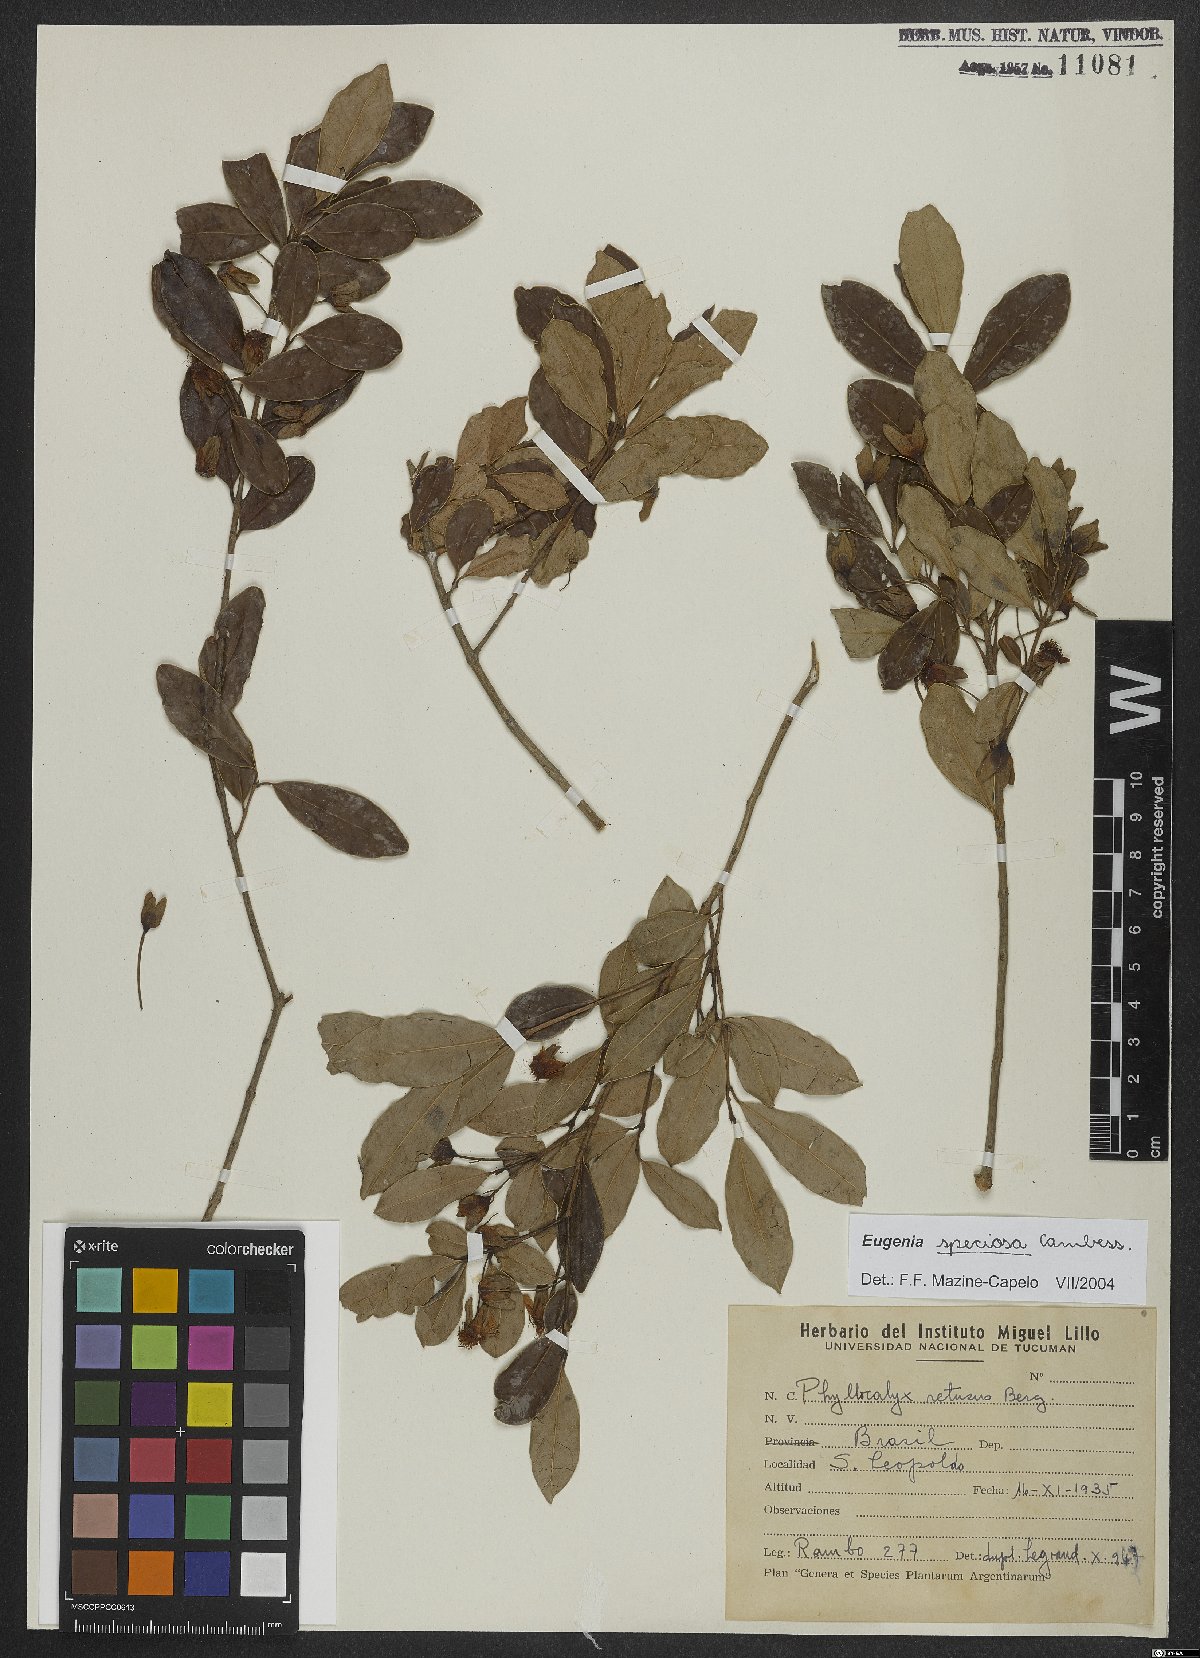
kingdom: Plantae
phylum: Tracheophyta
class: Magnoliopsida
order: Myrtales
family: Myrtaceae
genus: Eugenia
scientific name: Eugenia speciosa
